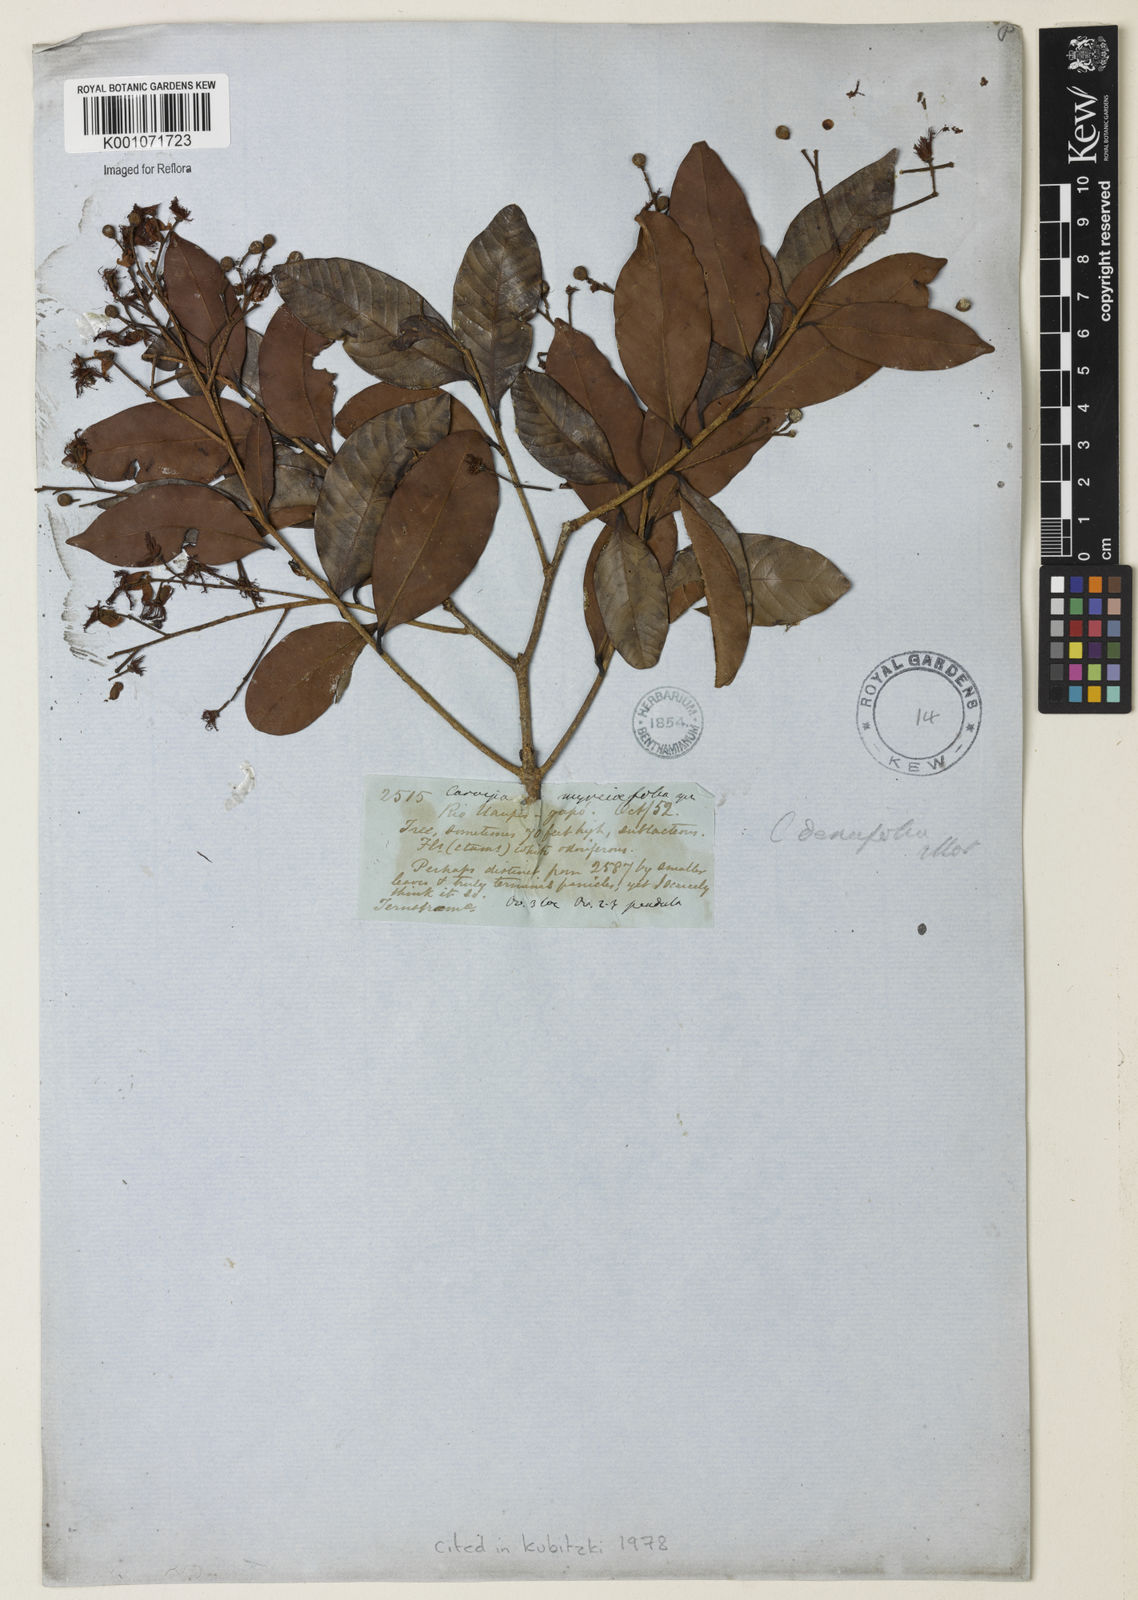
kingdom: Plantae
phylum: Tracheophyta
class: Magnoliopsida
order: Malpighiales
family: Calophyllaceae
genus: Caraipa
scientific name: Caraipa densifolia
